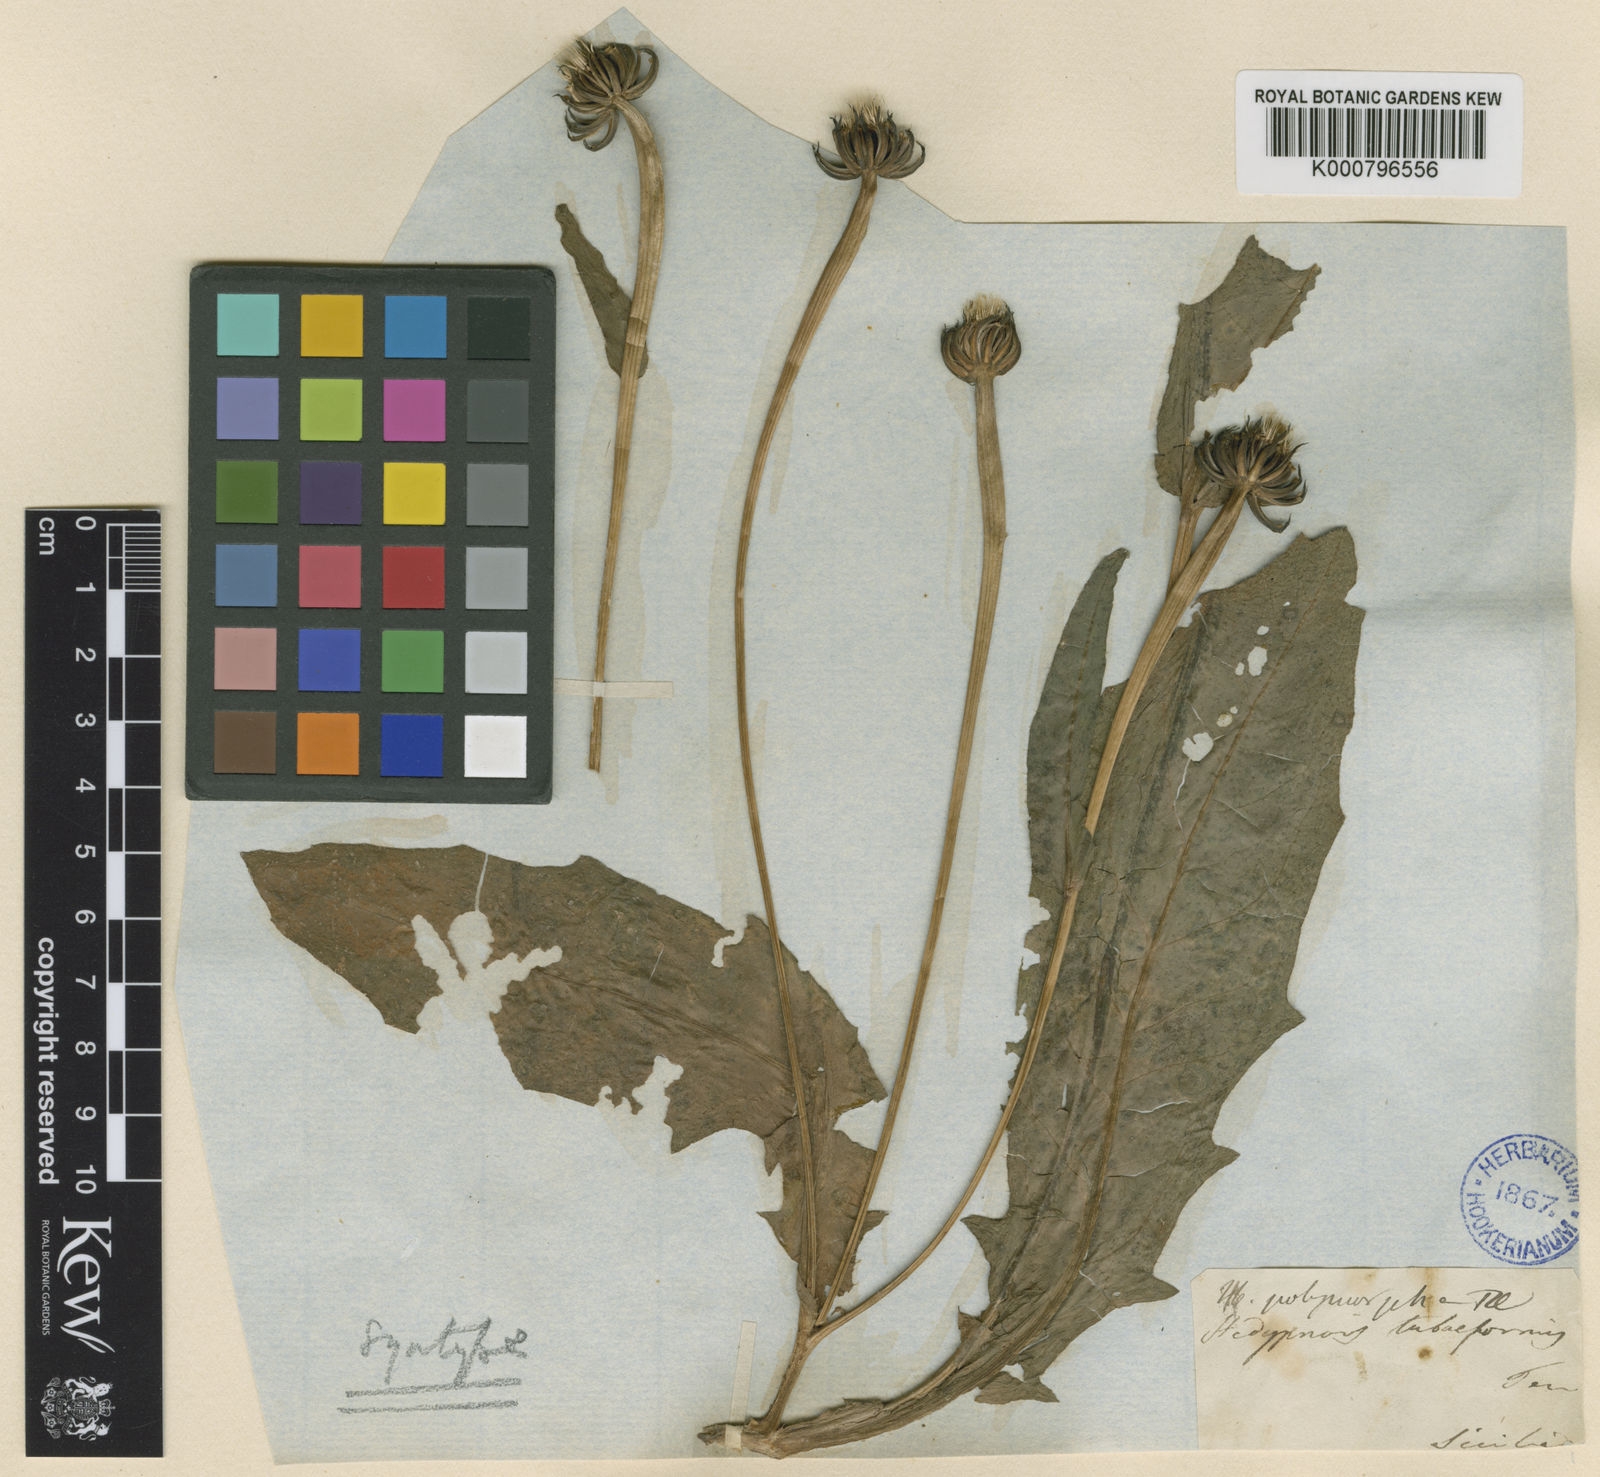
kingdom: Plantae
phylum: Tracheophyta
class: Magnoliopsida
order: Asterales
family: Asteraceae
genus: Hedypnois
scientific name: Hedypnois rhagadioloides
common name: Cretan weed
